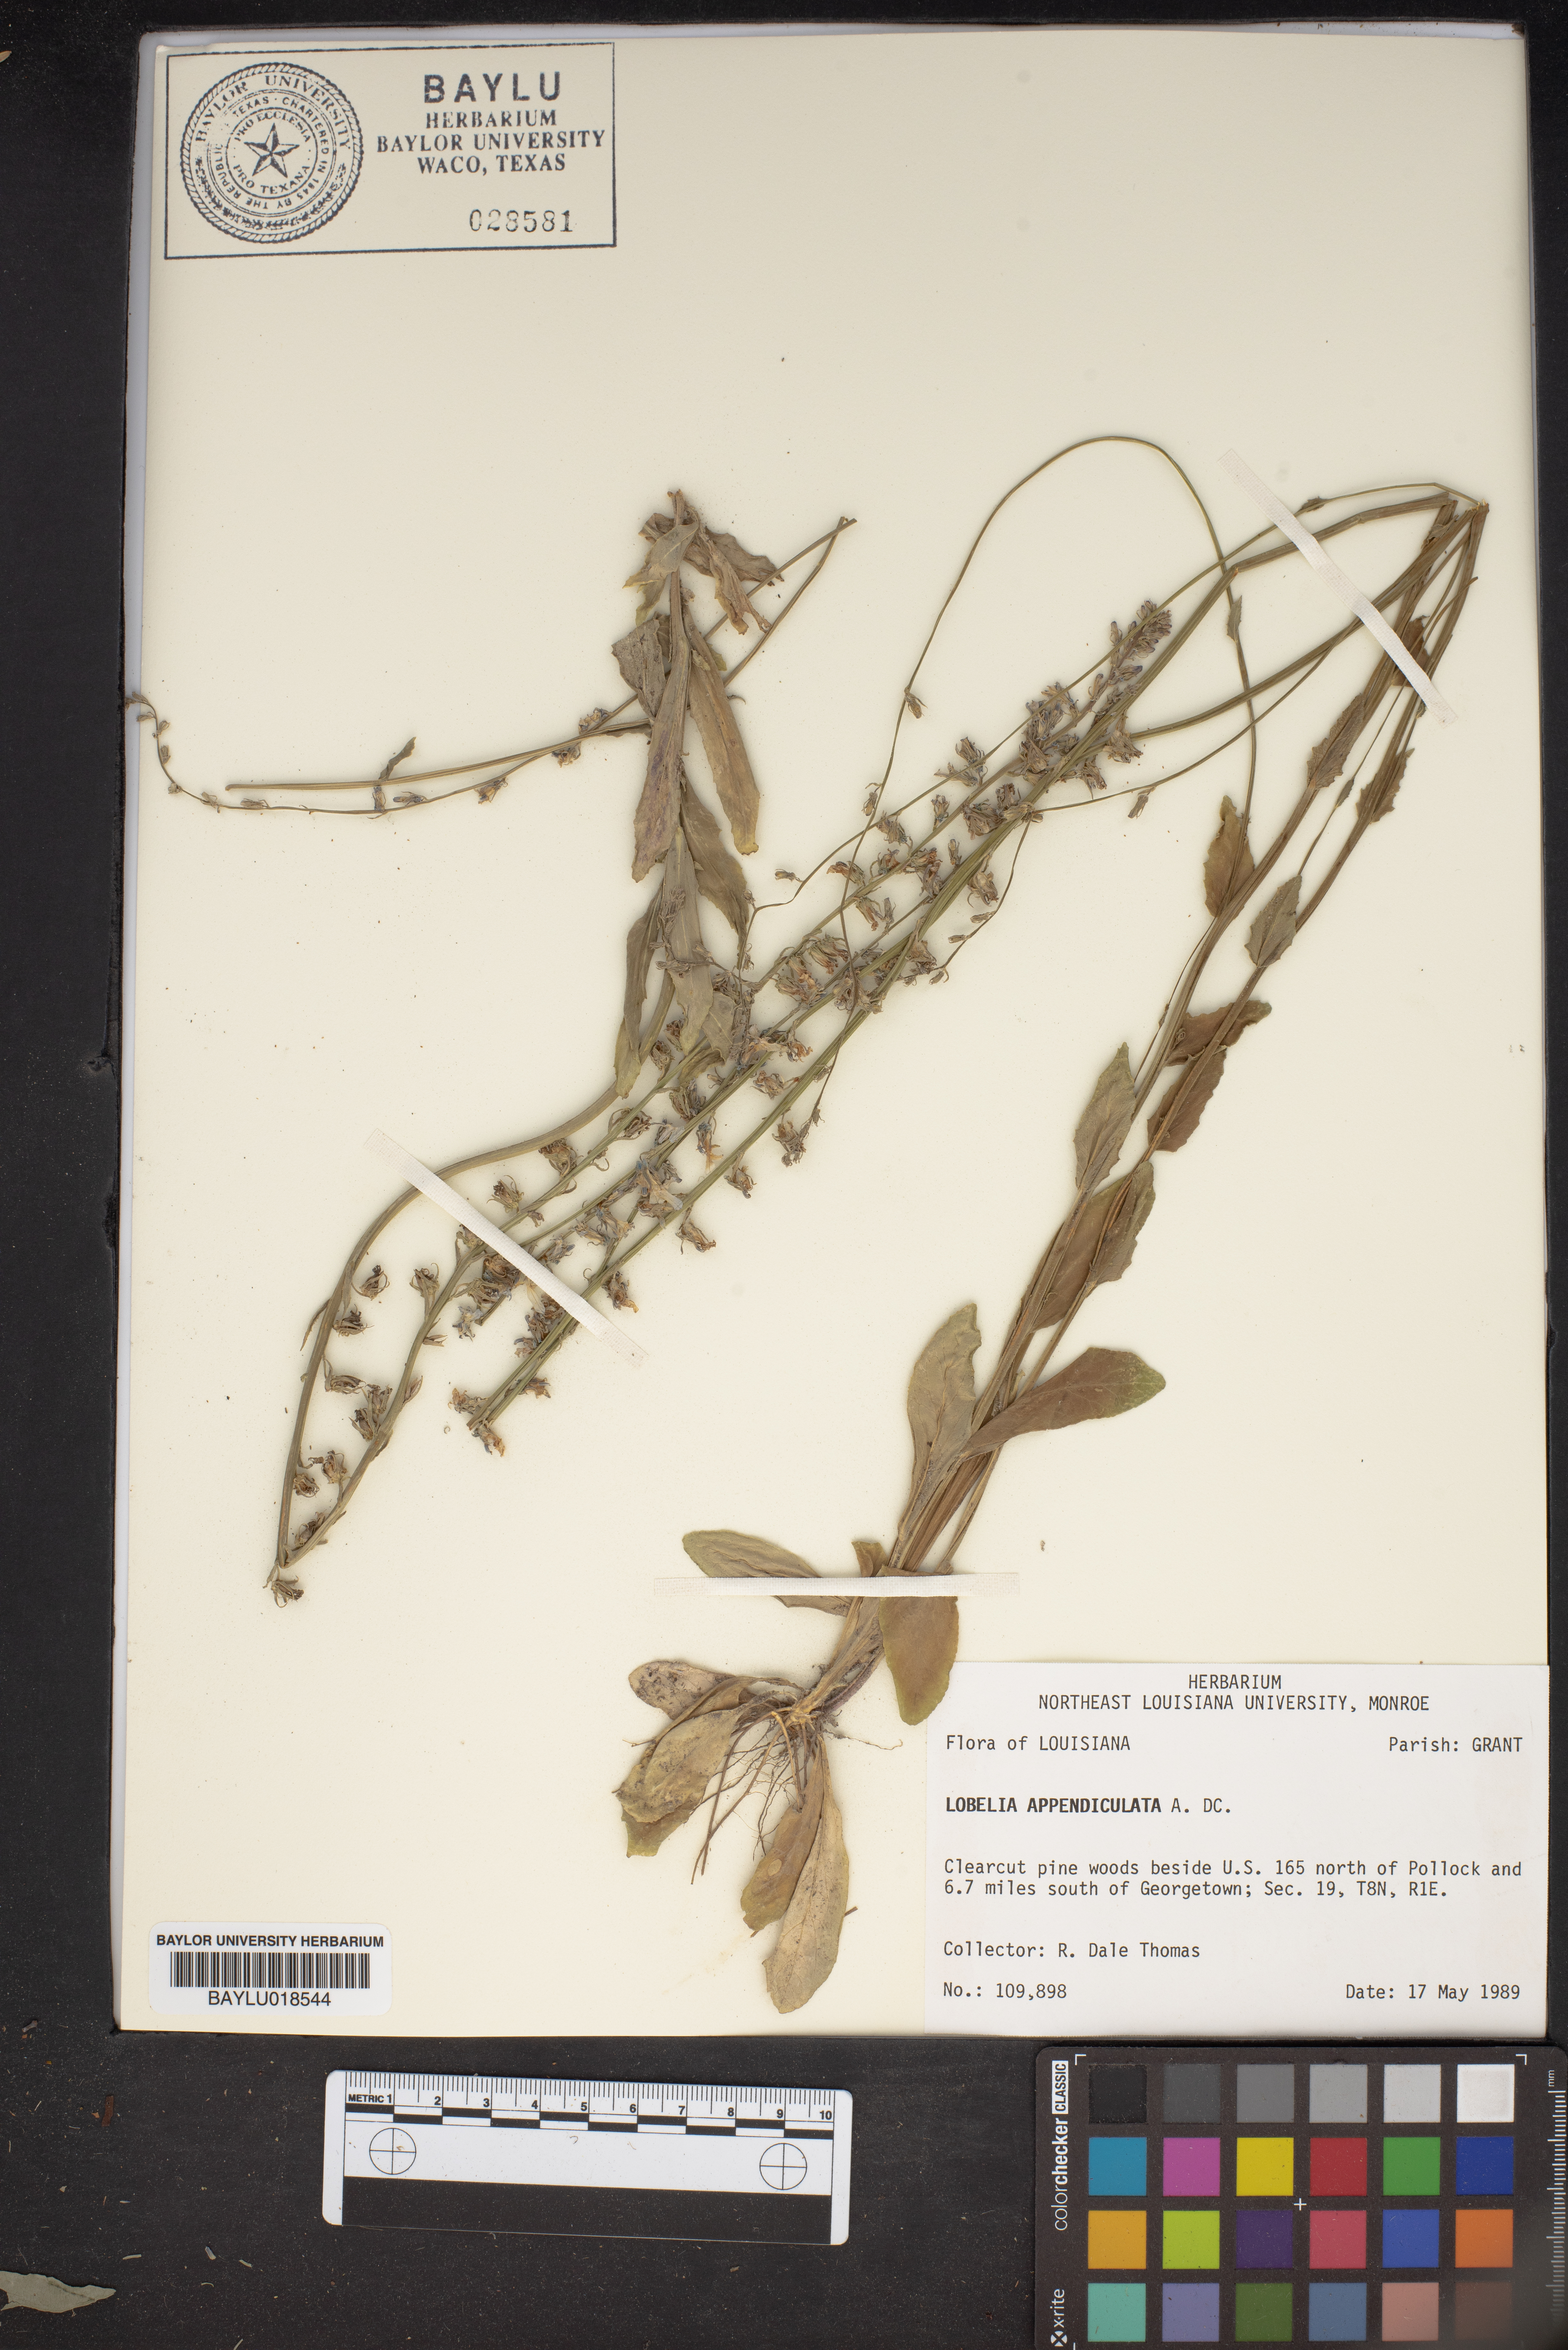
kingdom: Plantae
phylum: Tracheophyta
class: Magnoliopsida
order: Asterales
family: Campanulaceae
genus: Lobelia
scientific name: Lobelia appendiculata
